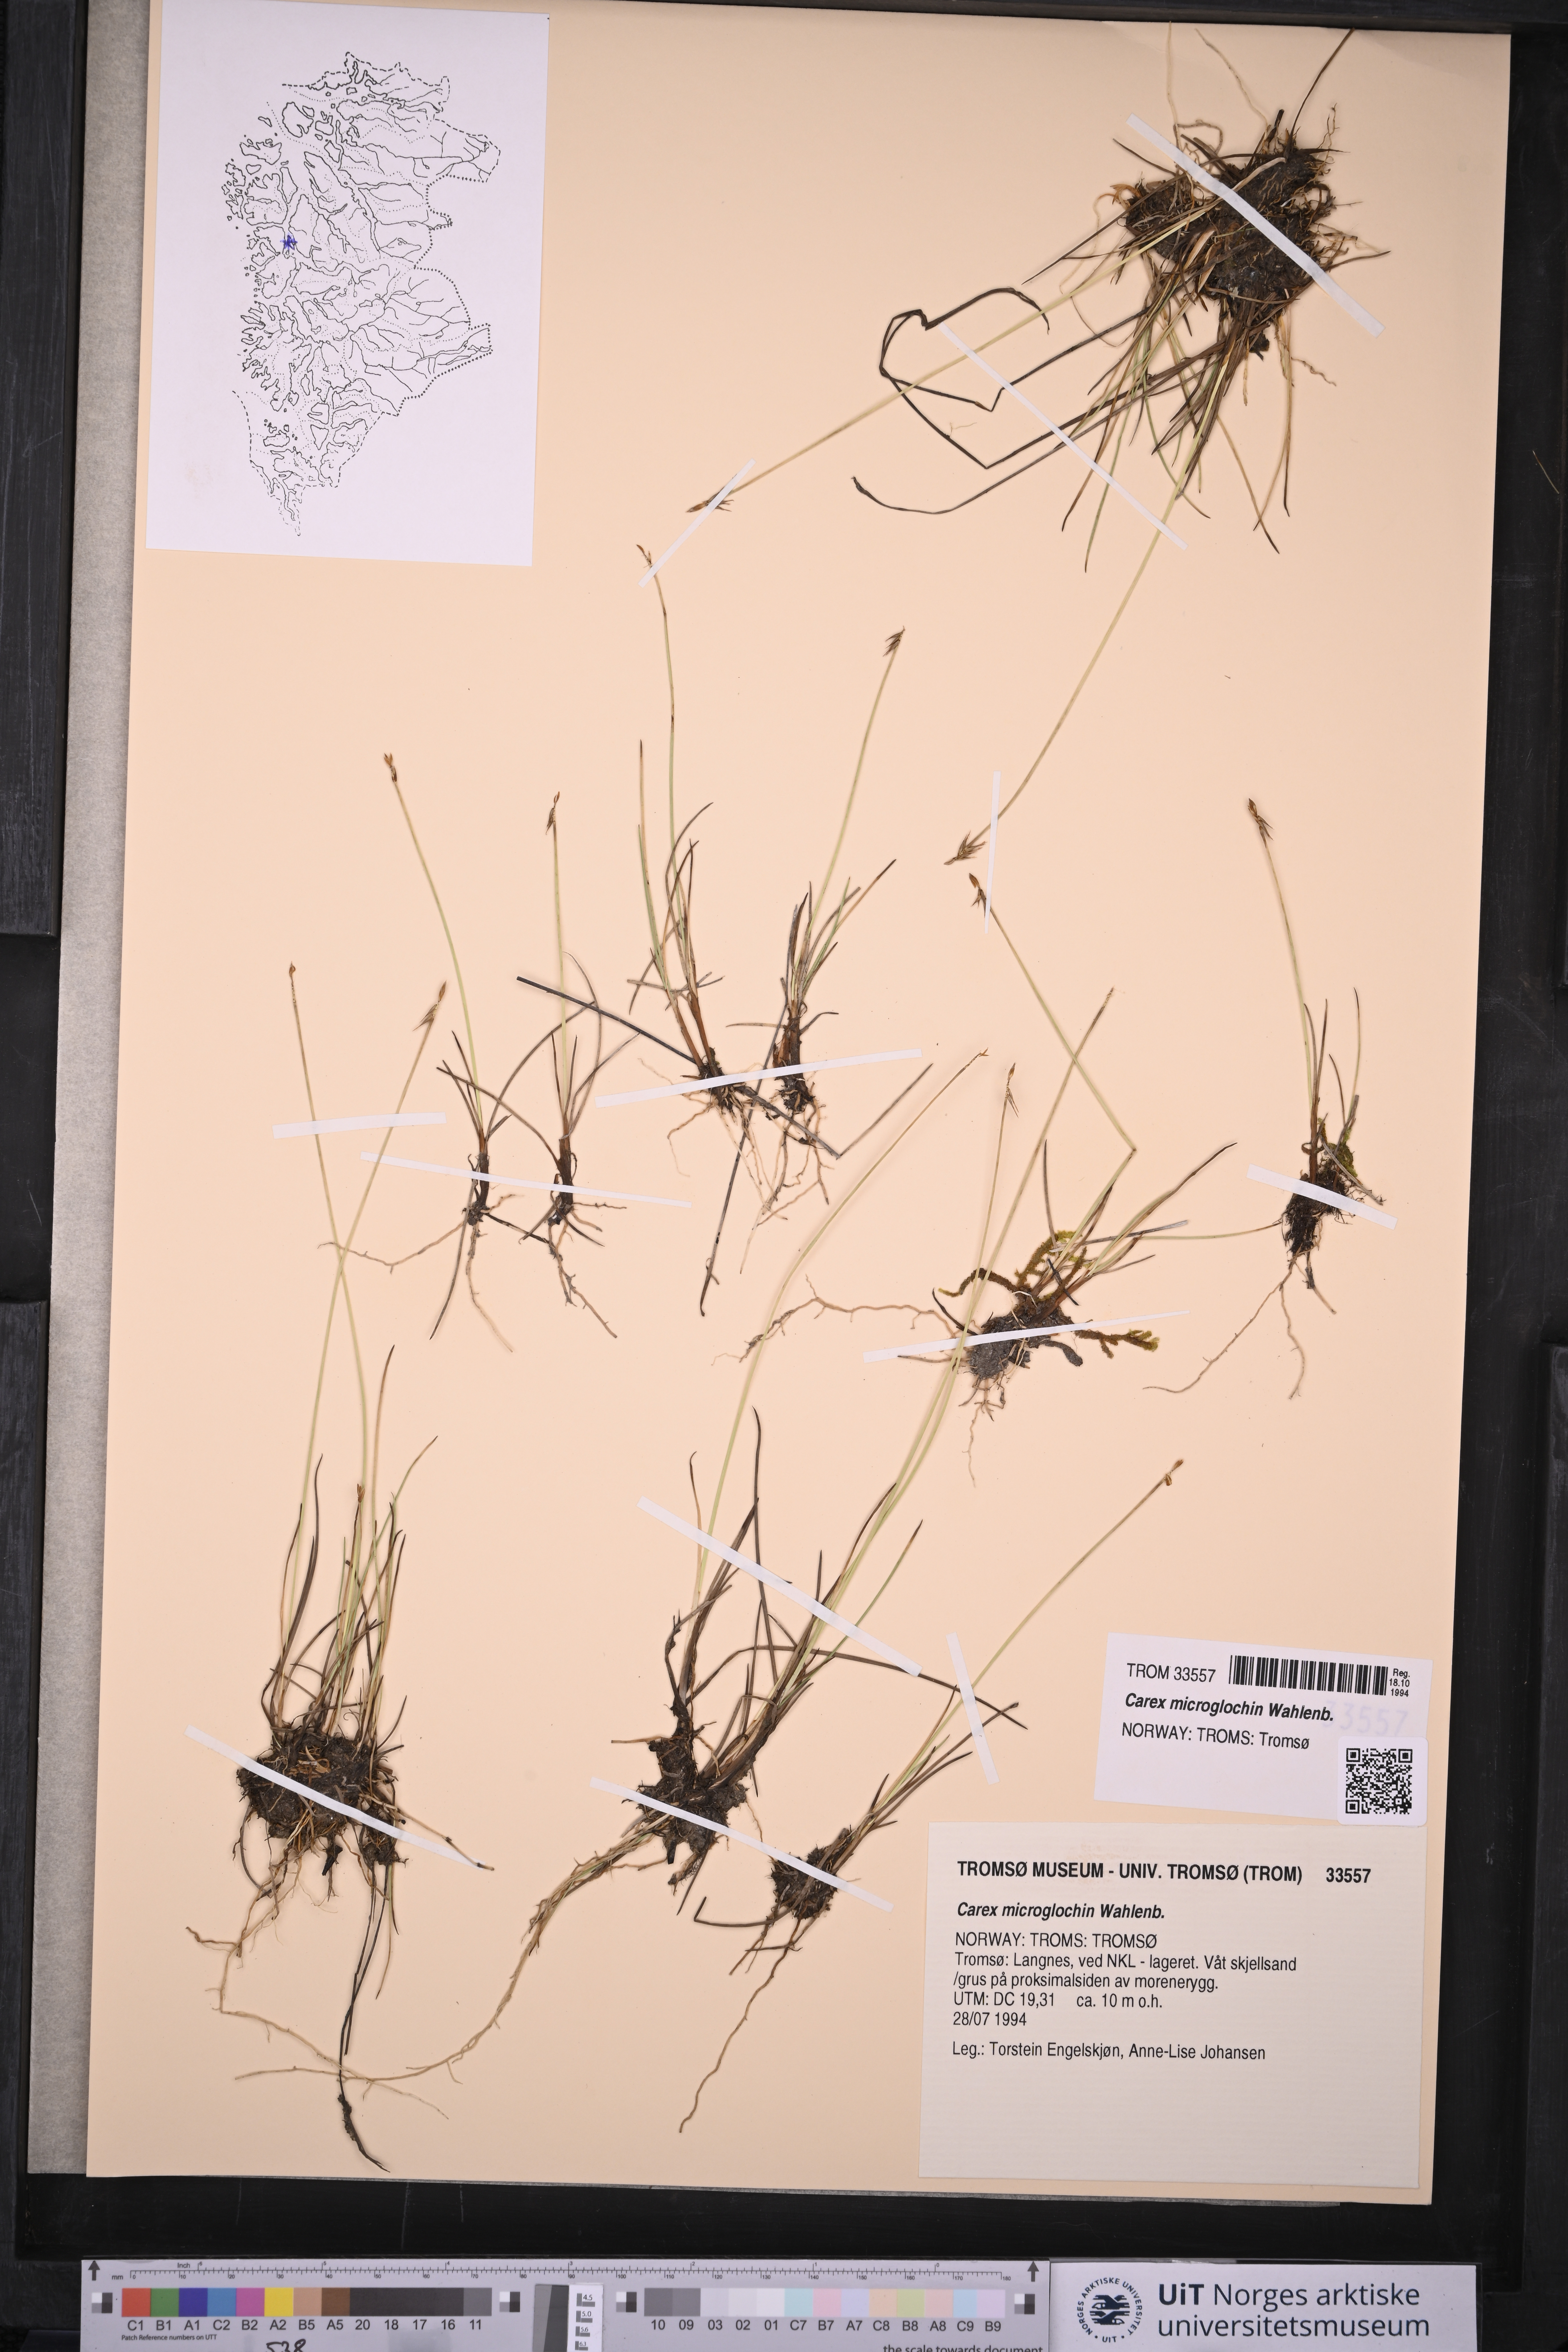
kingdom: Plantae
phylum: Tracheophyta
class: Liliopsida
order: Poales
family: Cyperaceae
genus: Carex
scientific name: Carex microglochin
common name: Bristle sedge
